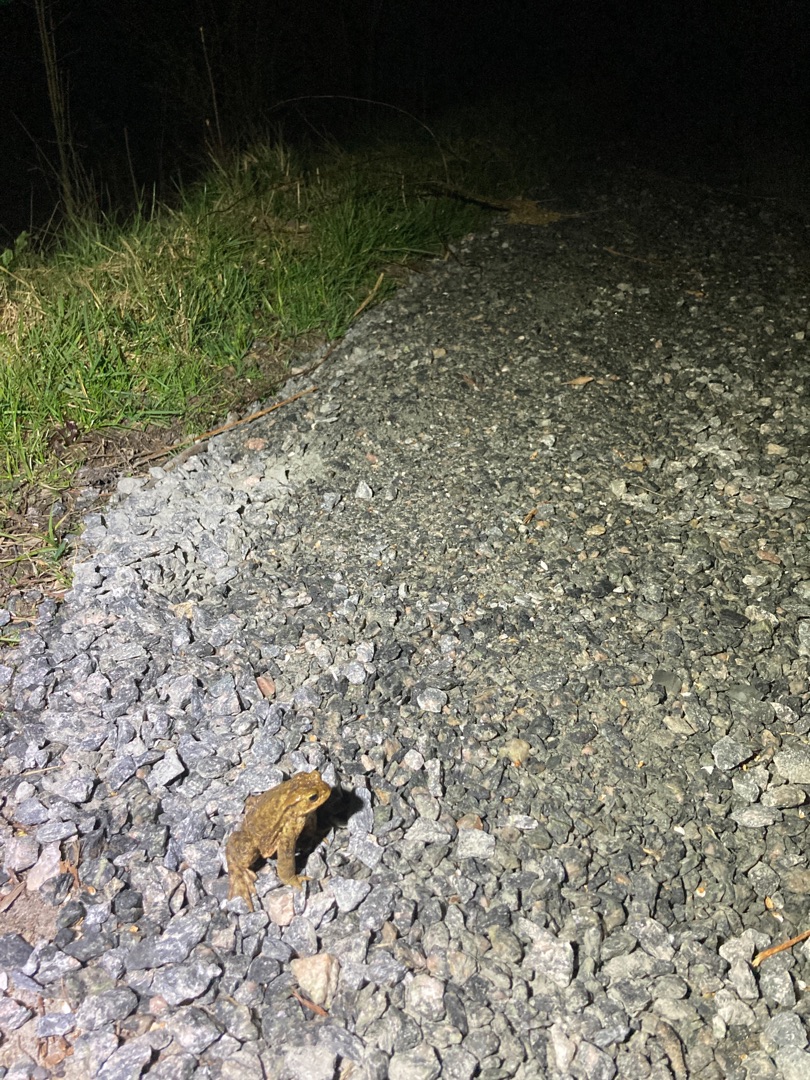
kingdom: Animalia
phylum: Chordata
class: Amphibia
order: Anura
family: Bufonidae
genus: Bufo
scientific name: Bufo bufo
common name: Skrubtudse
